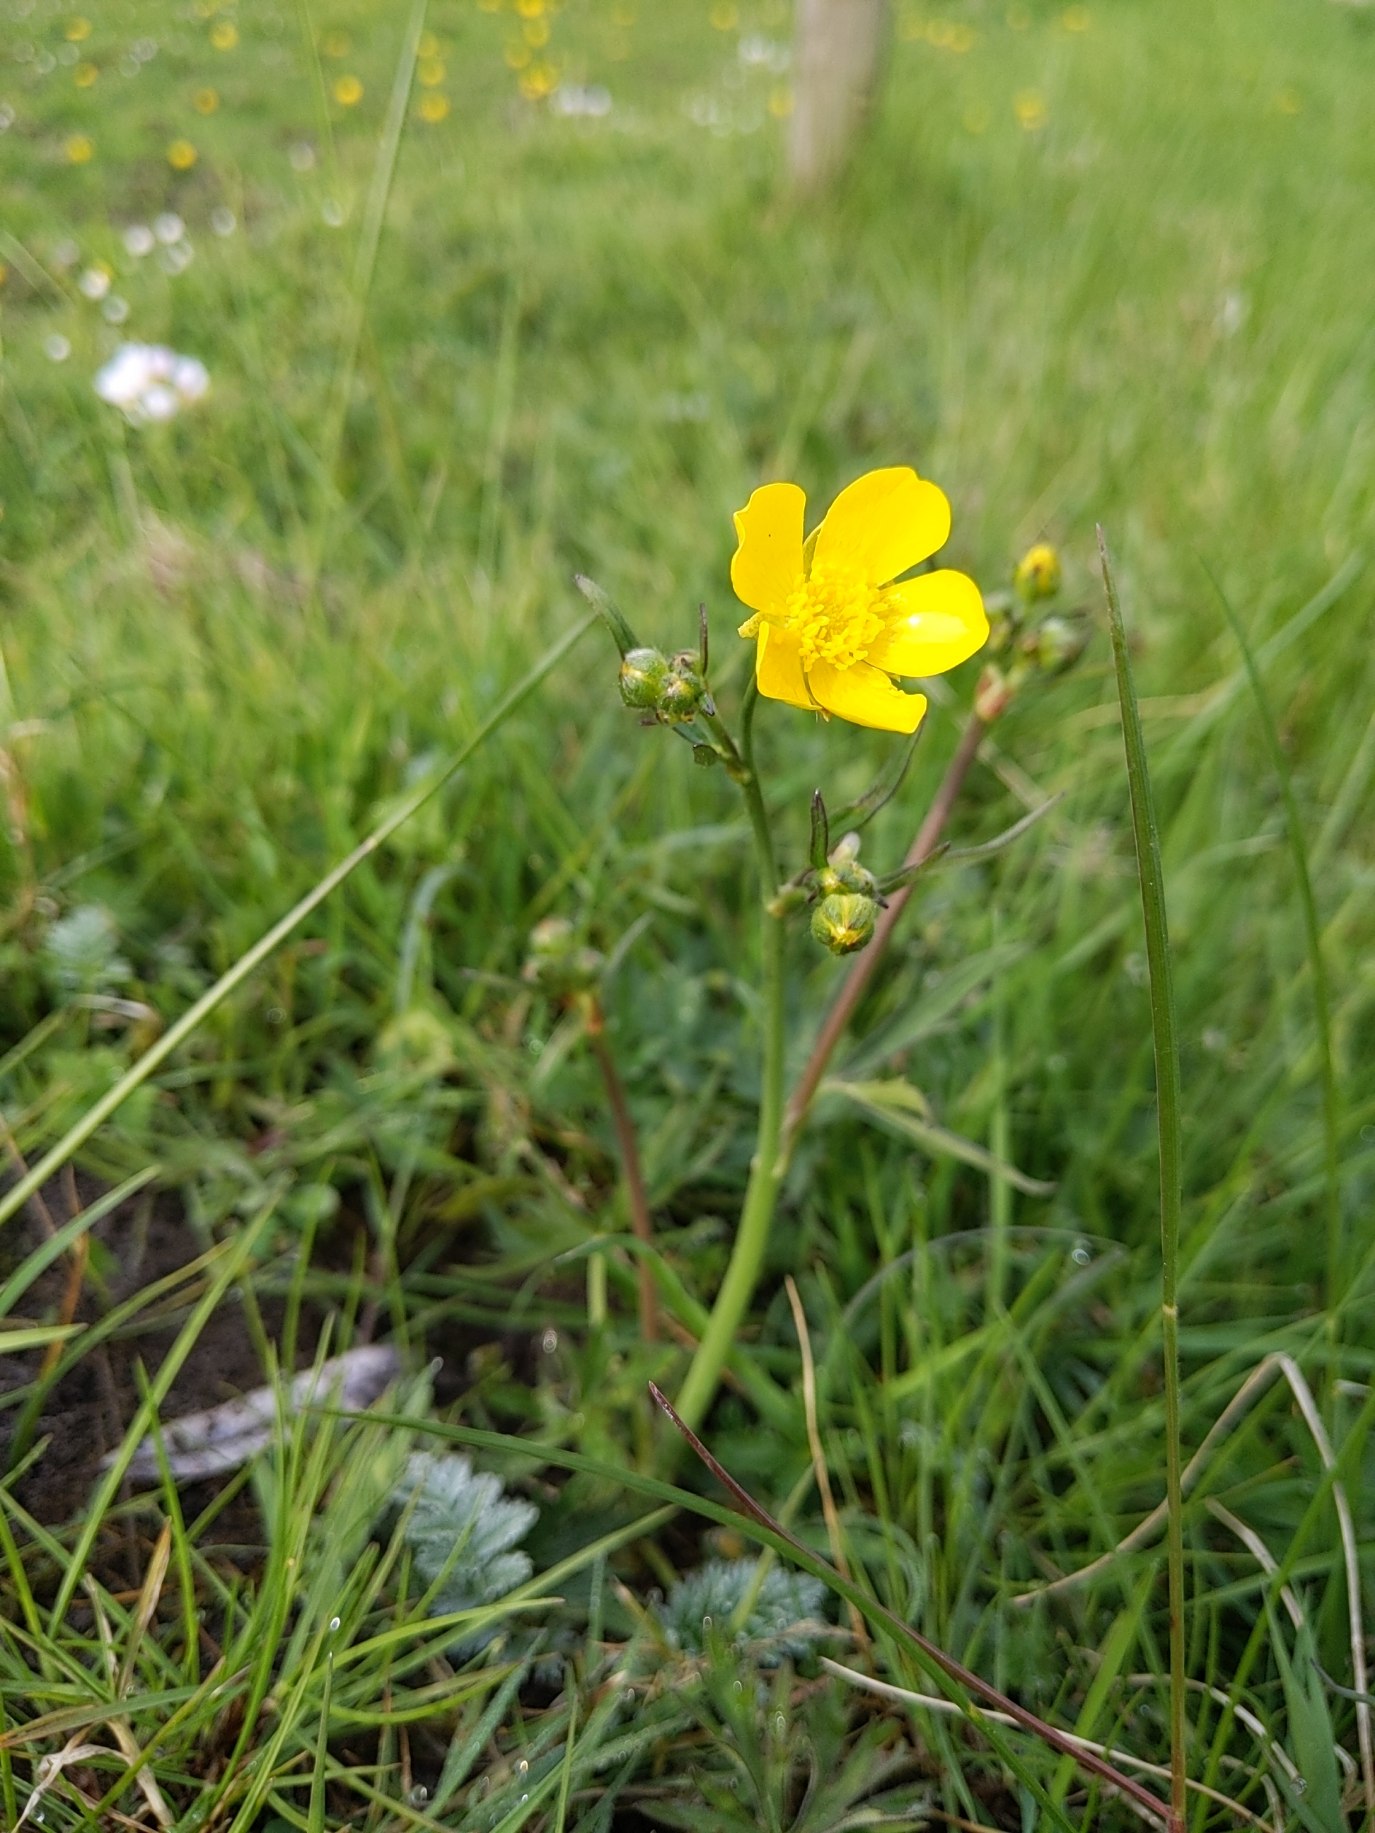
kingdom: Plantae
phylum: Tracheophyta
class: Magnoliopsida
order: Ranunculales
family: Ranunculaceae
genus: Ranunculus
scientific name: Ranunculus acris
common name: Bidende ranunkel
